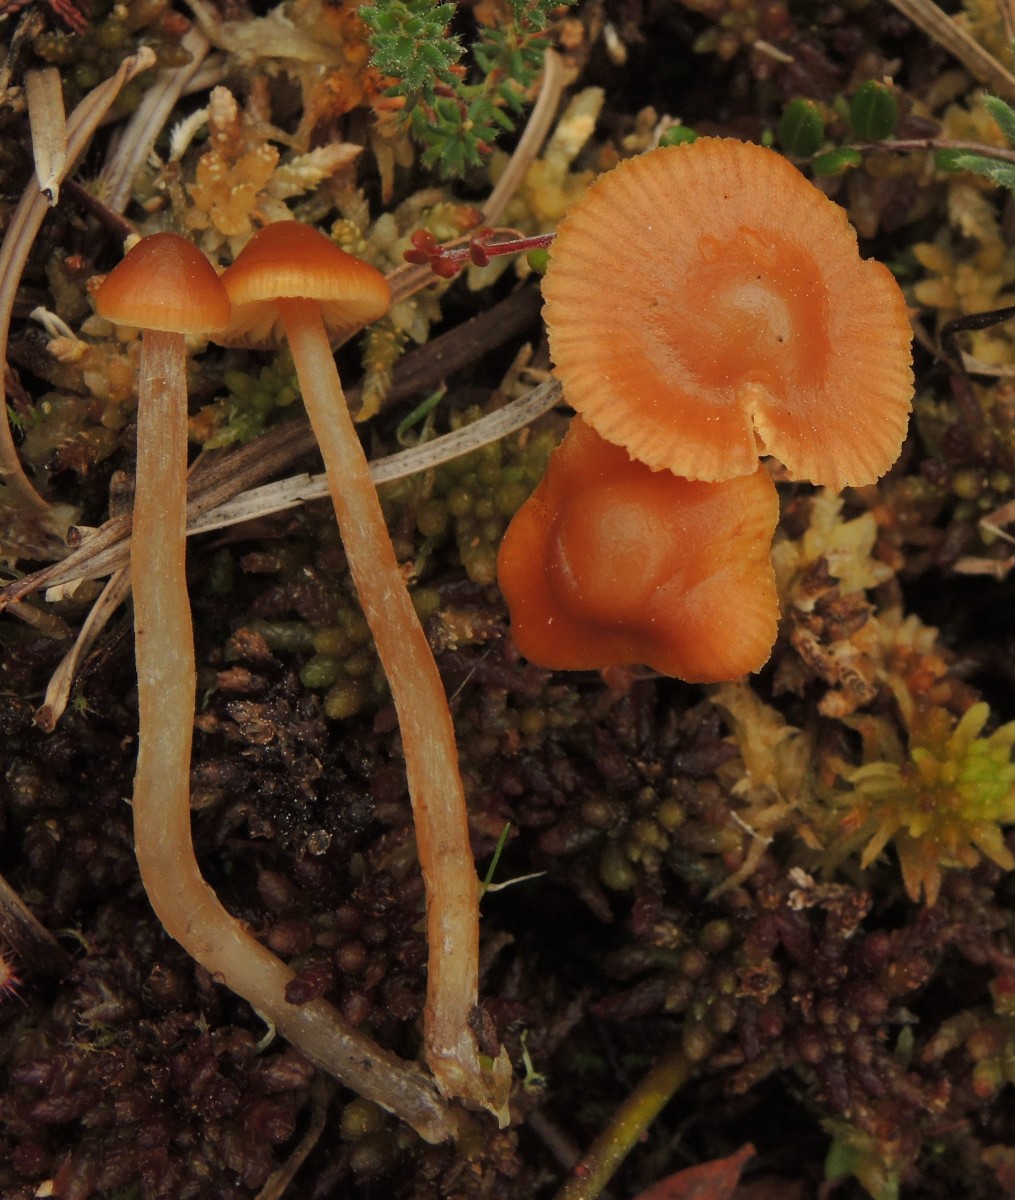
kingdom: Fungi
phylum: Basidiomycota
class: Agaricomycetes
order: Agaricales
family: Hymenogastraceae
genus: Galerina
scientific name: Galerina hybrida
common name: hængesæk-hjelmhat
